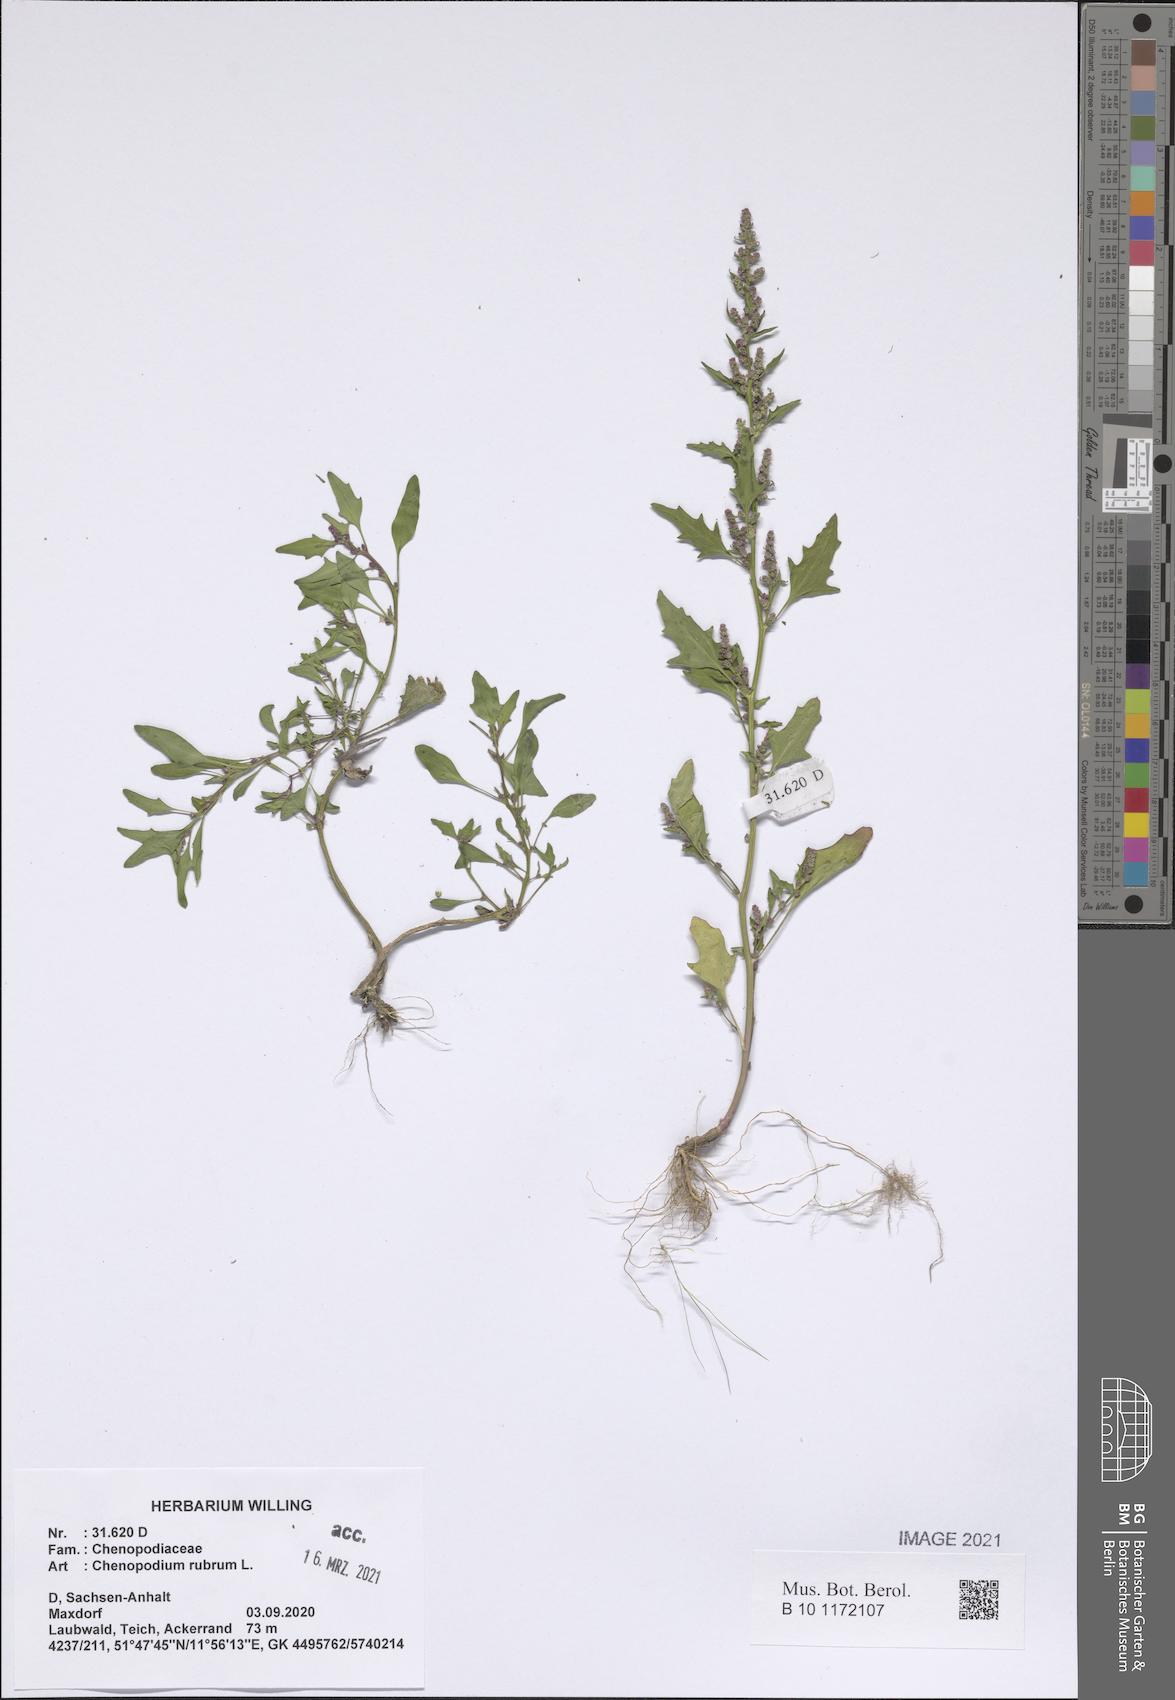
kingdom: Plantae
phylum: Tracheophyta
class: Magnoliopsida
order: Caryophyllales
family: Amaranthaceae
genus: Oxybasis
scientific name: Oxybasis rubra
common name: Red goosefoot
